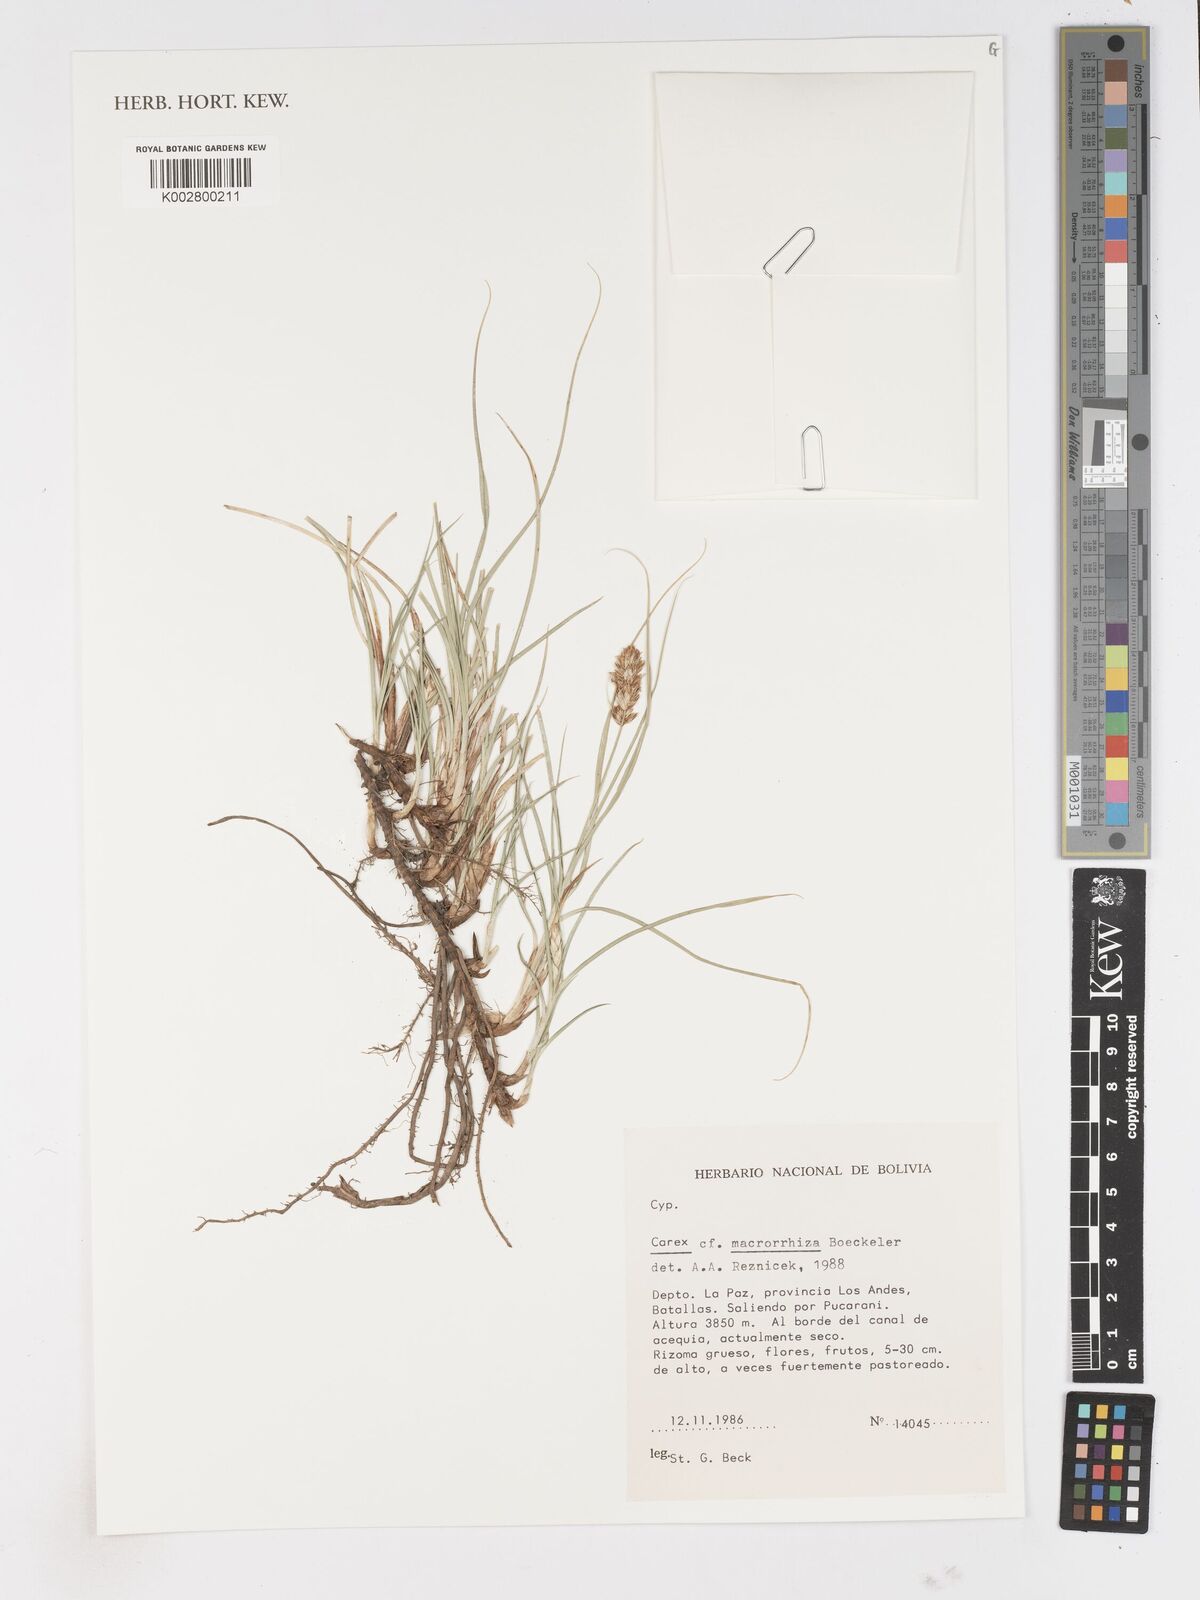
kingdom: Plantae
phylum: Tracheophyta
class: Liliopsida
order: Poales
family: Cyperaceae
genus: Carex
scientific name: Carex macrorrhiza
